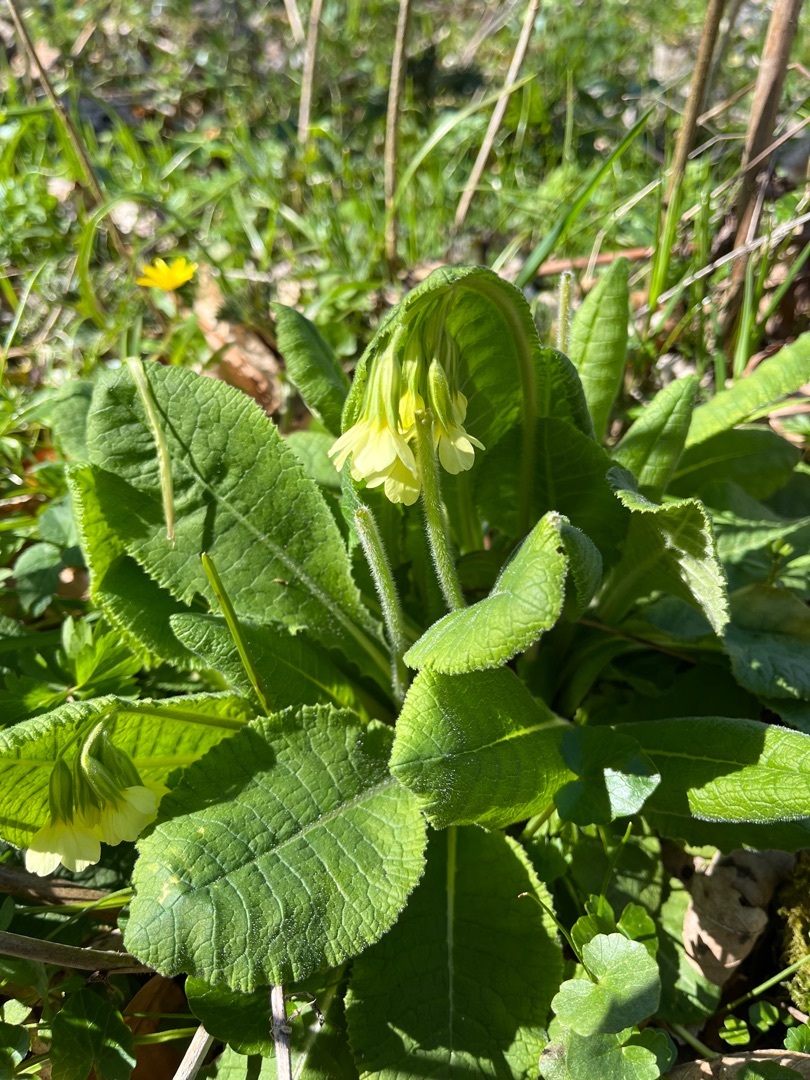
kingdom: Plantae
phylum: Tracheophyta
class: Magnoliopsida
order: Ericales
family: Primulaceae
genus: Primula
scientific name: Primula elatior
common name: Fladkravet kodriver
